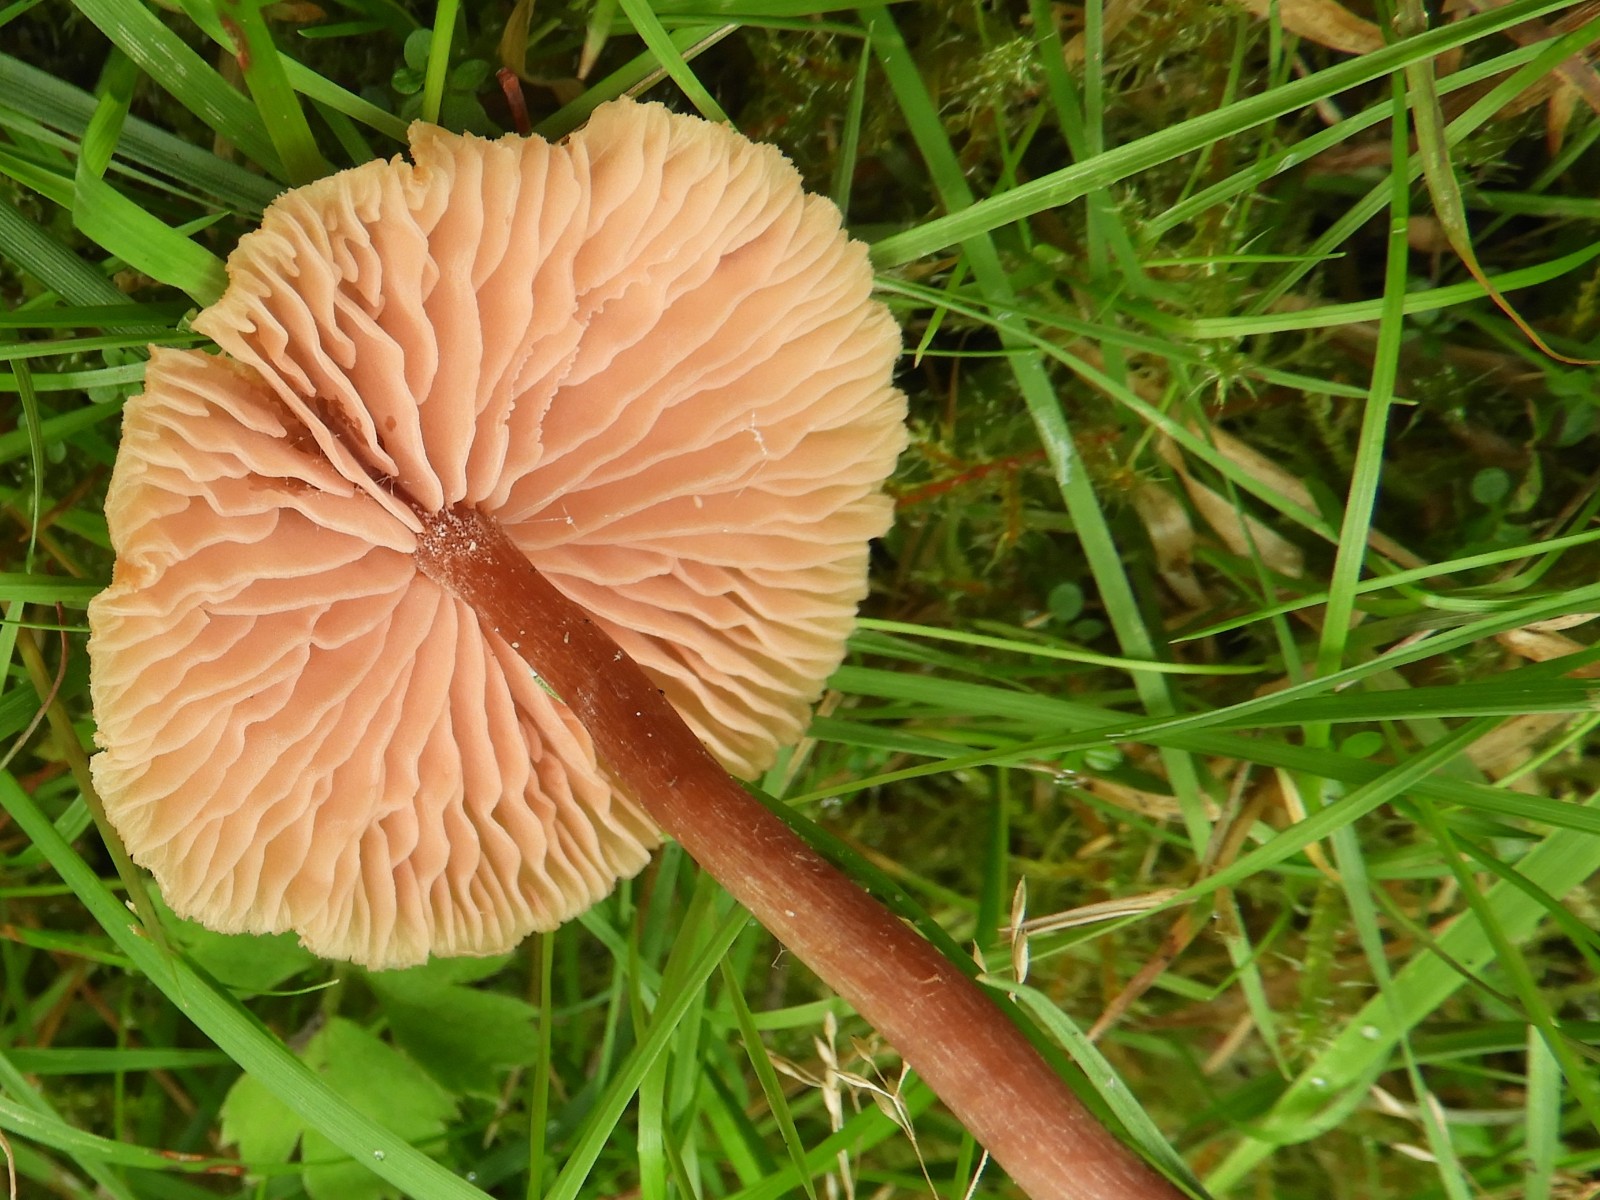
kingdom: Fungi
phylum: Basidiomycota
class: Agaricomycetes
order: Agaricales
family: Hydnangiaceae
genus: Laccaria
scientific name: Laccaria proxima
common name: stor ametysthat
